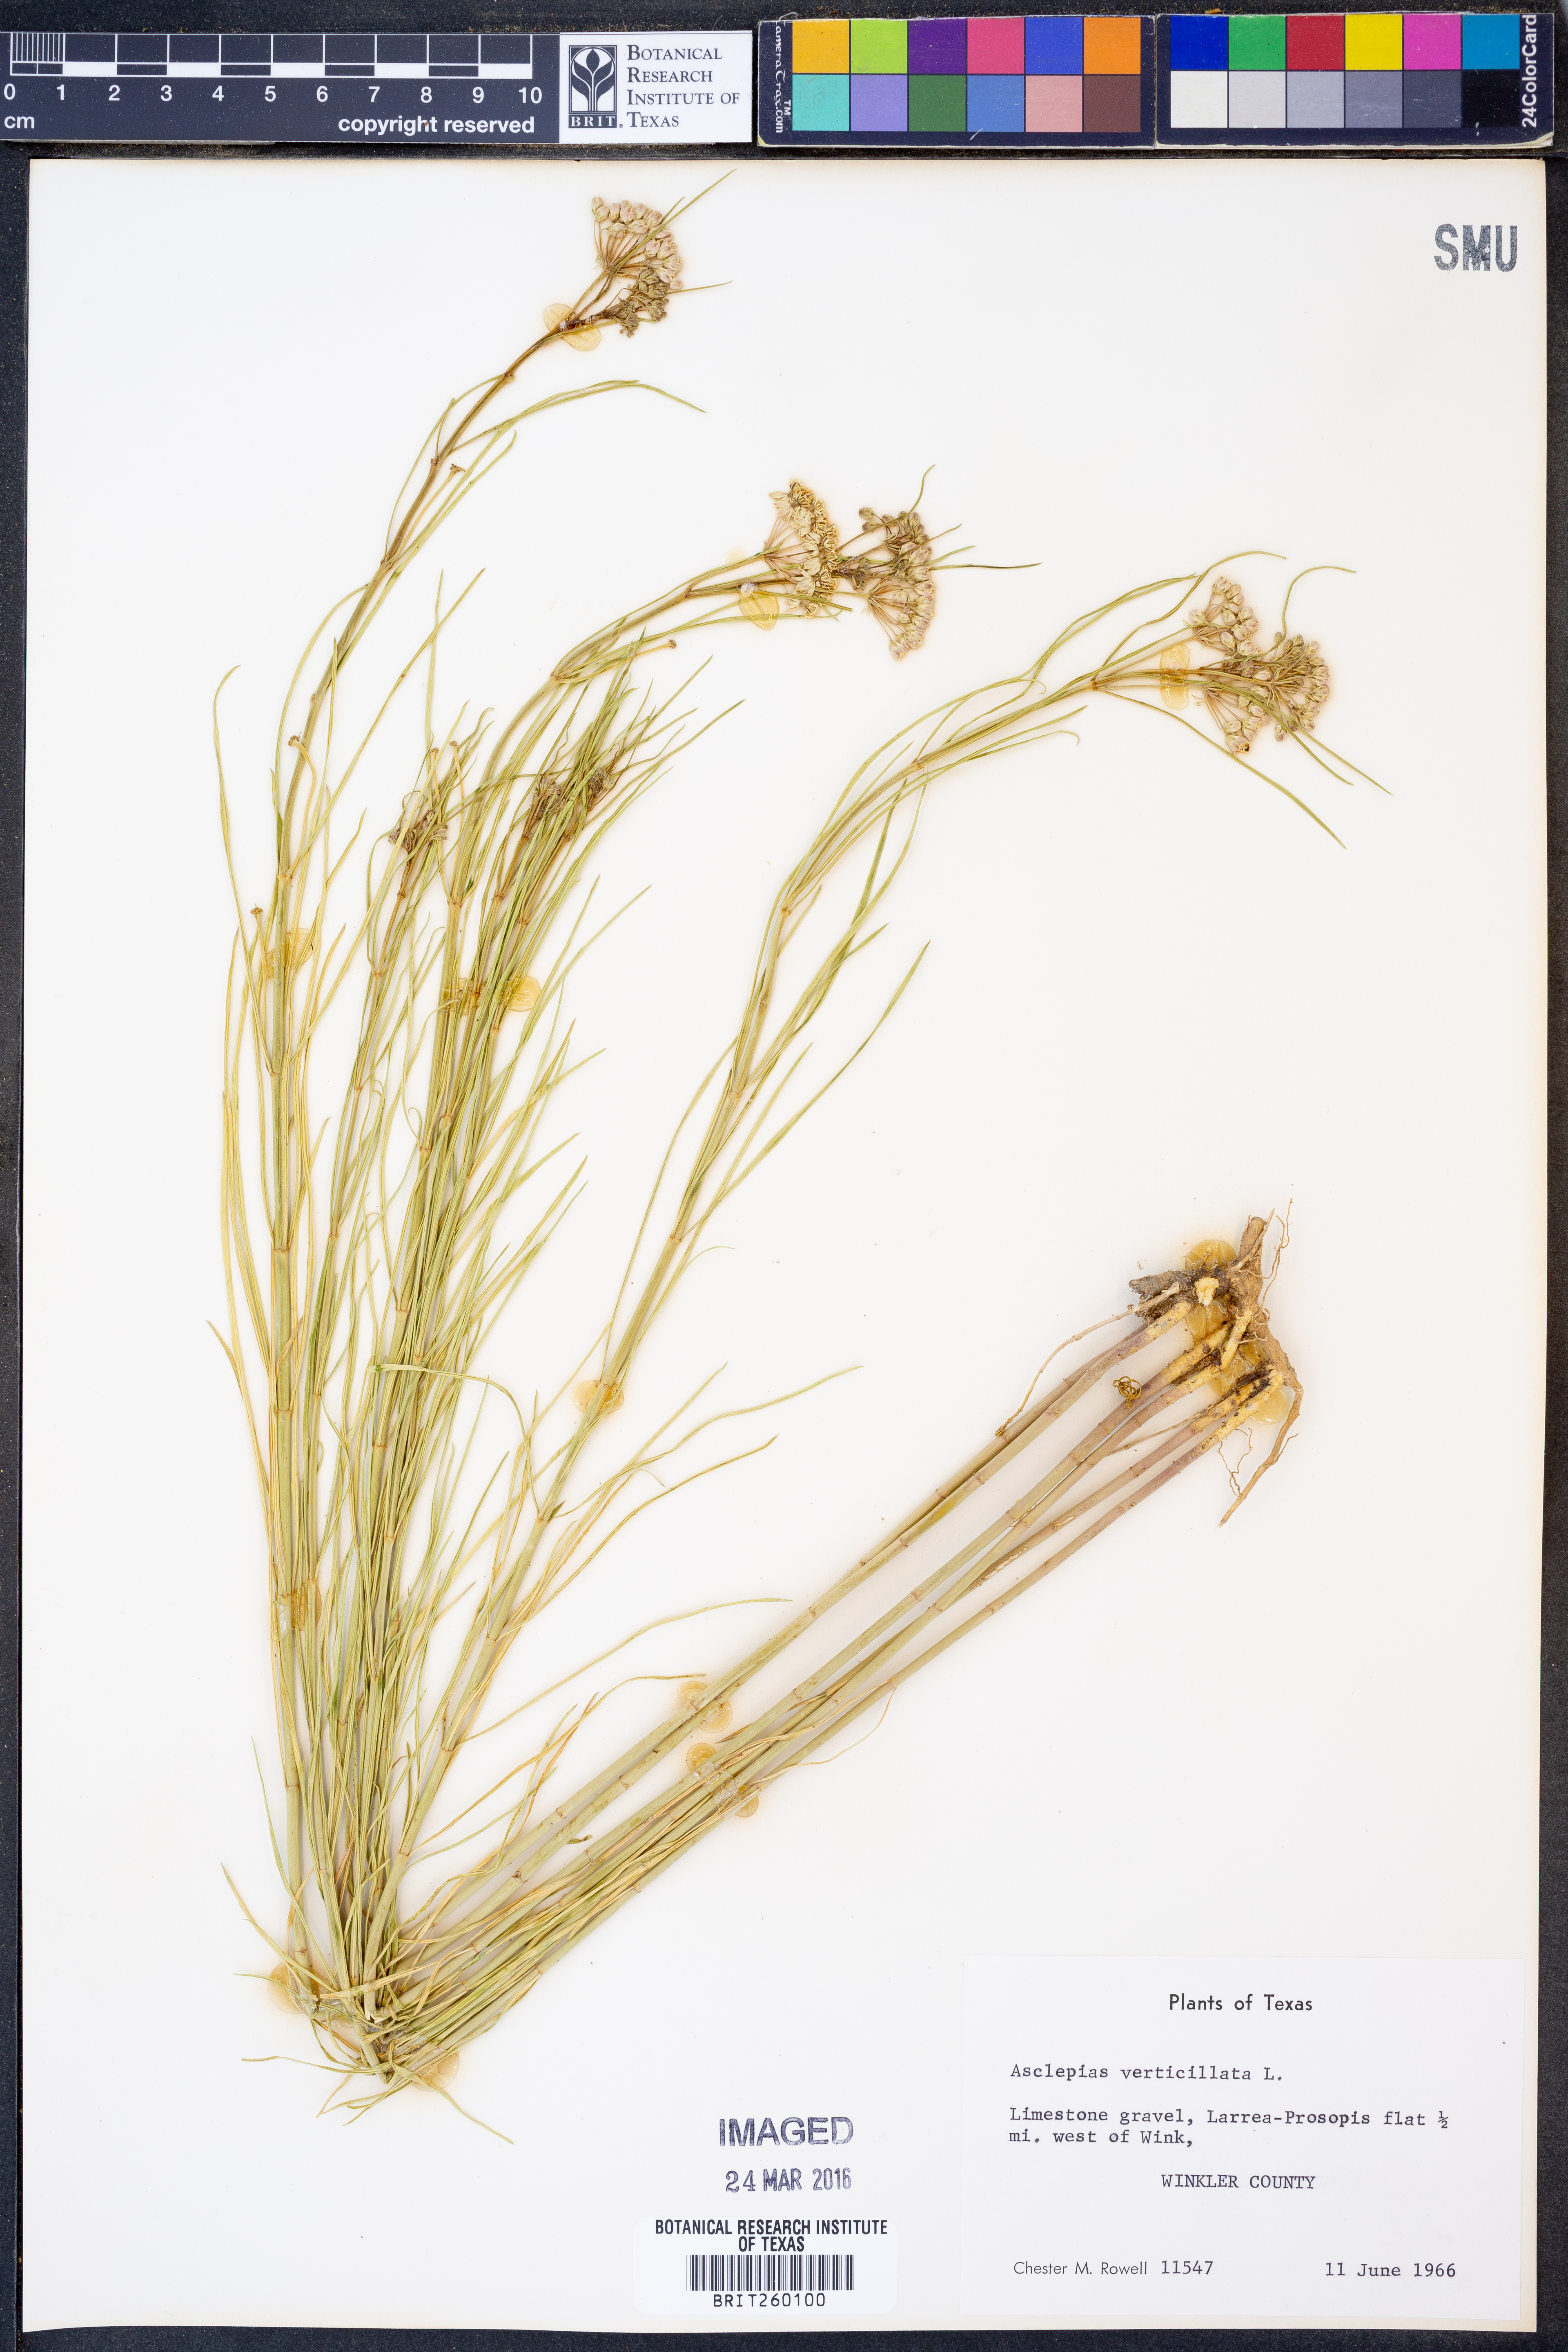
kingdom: Plantae
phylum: Tracheophyta
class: Magnoliopsida
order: Gentianales
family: Apocynaceae
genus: Asclepias
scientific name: Asclepias verticillata
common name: Eastern whorled milkweed
